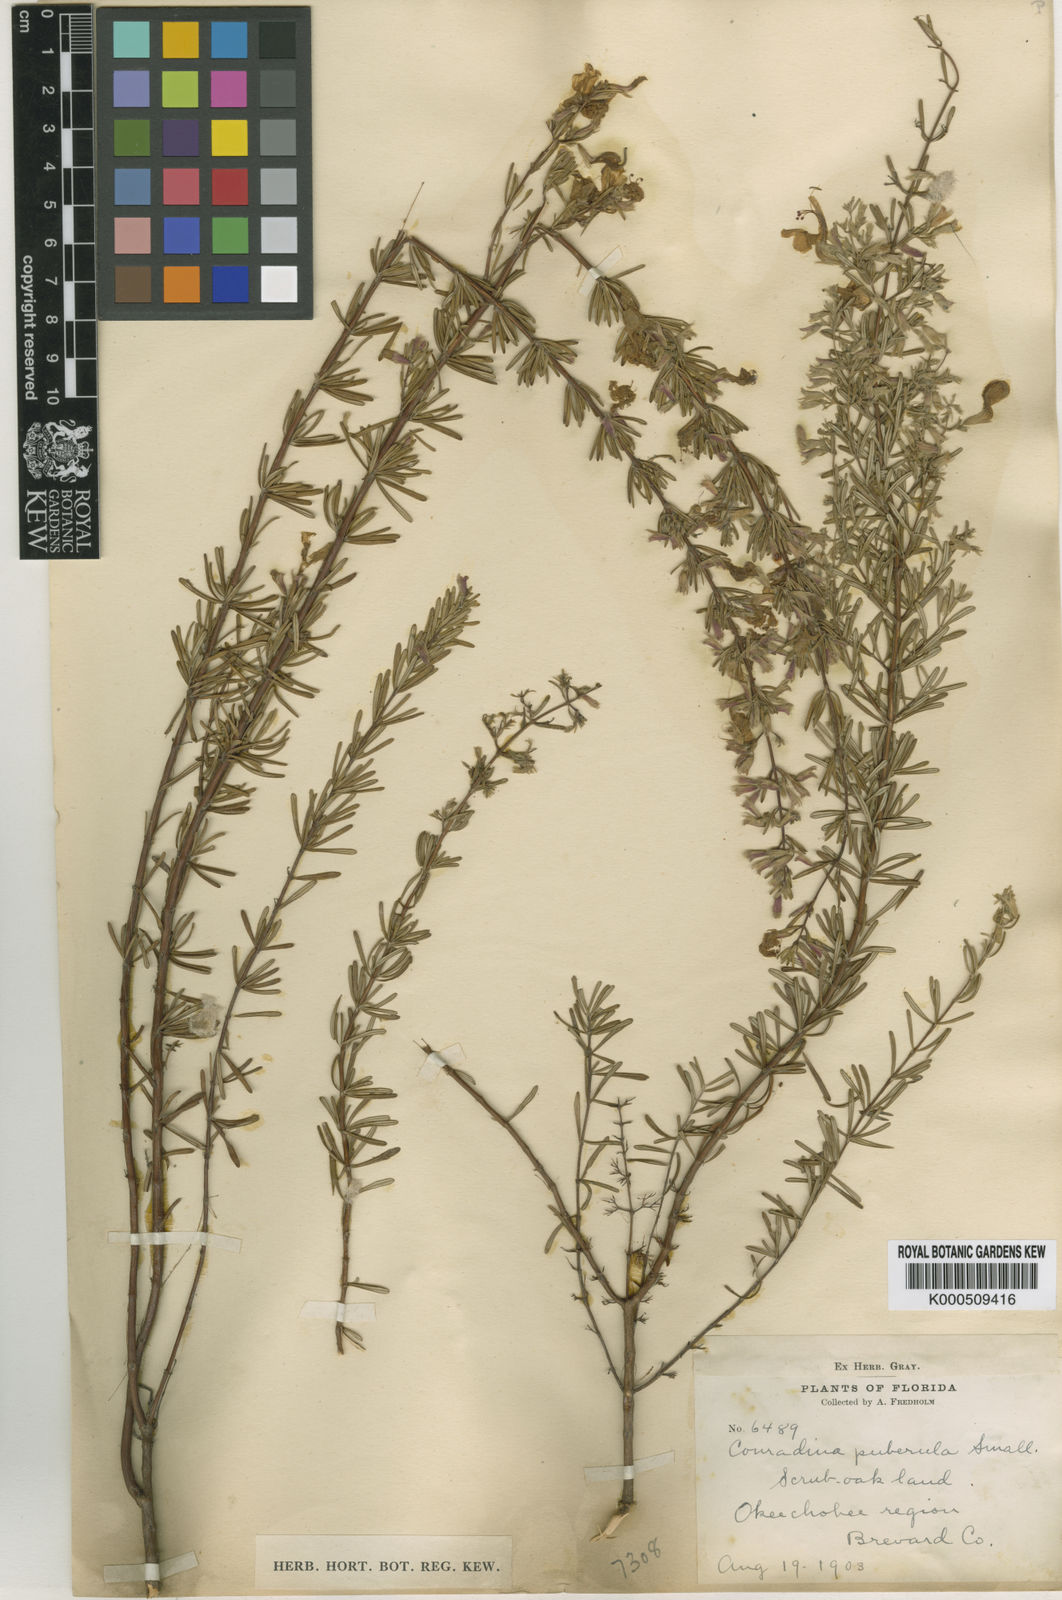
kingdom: Plantae
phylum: Tracheophyta
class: Magnoliopsida
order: Lamiales
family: Lamiaceae
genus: Conradina
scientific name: Conradina canescens
